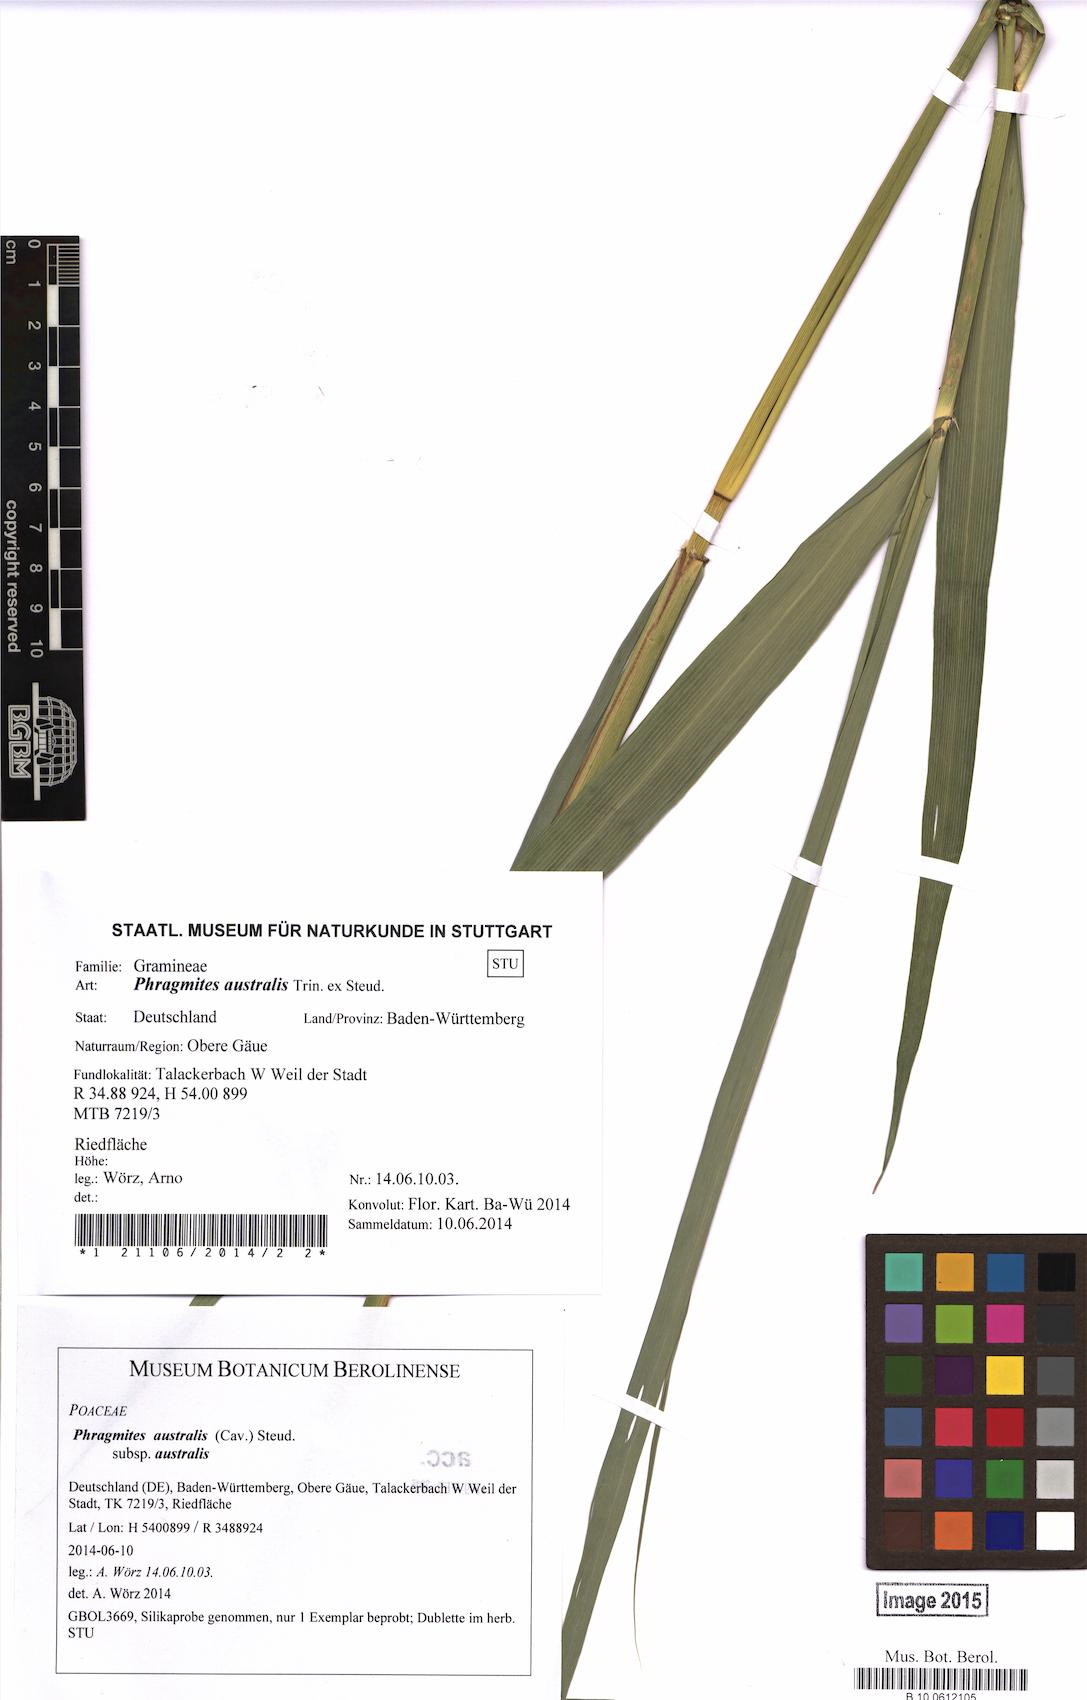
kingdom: Plantae
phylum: Tracheophyta
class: Liliopsida
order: Poales
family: Poaceae
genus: Phragmites
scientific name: Phragmites australis
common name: Common reed
